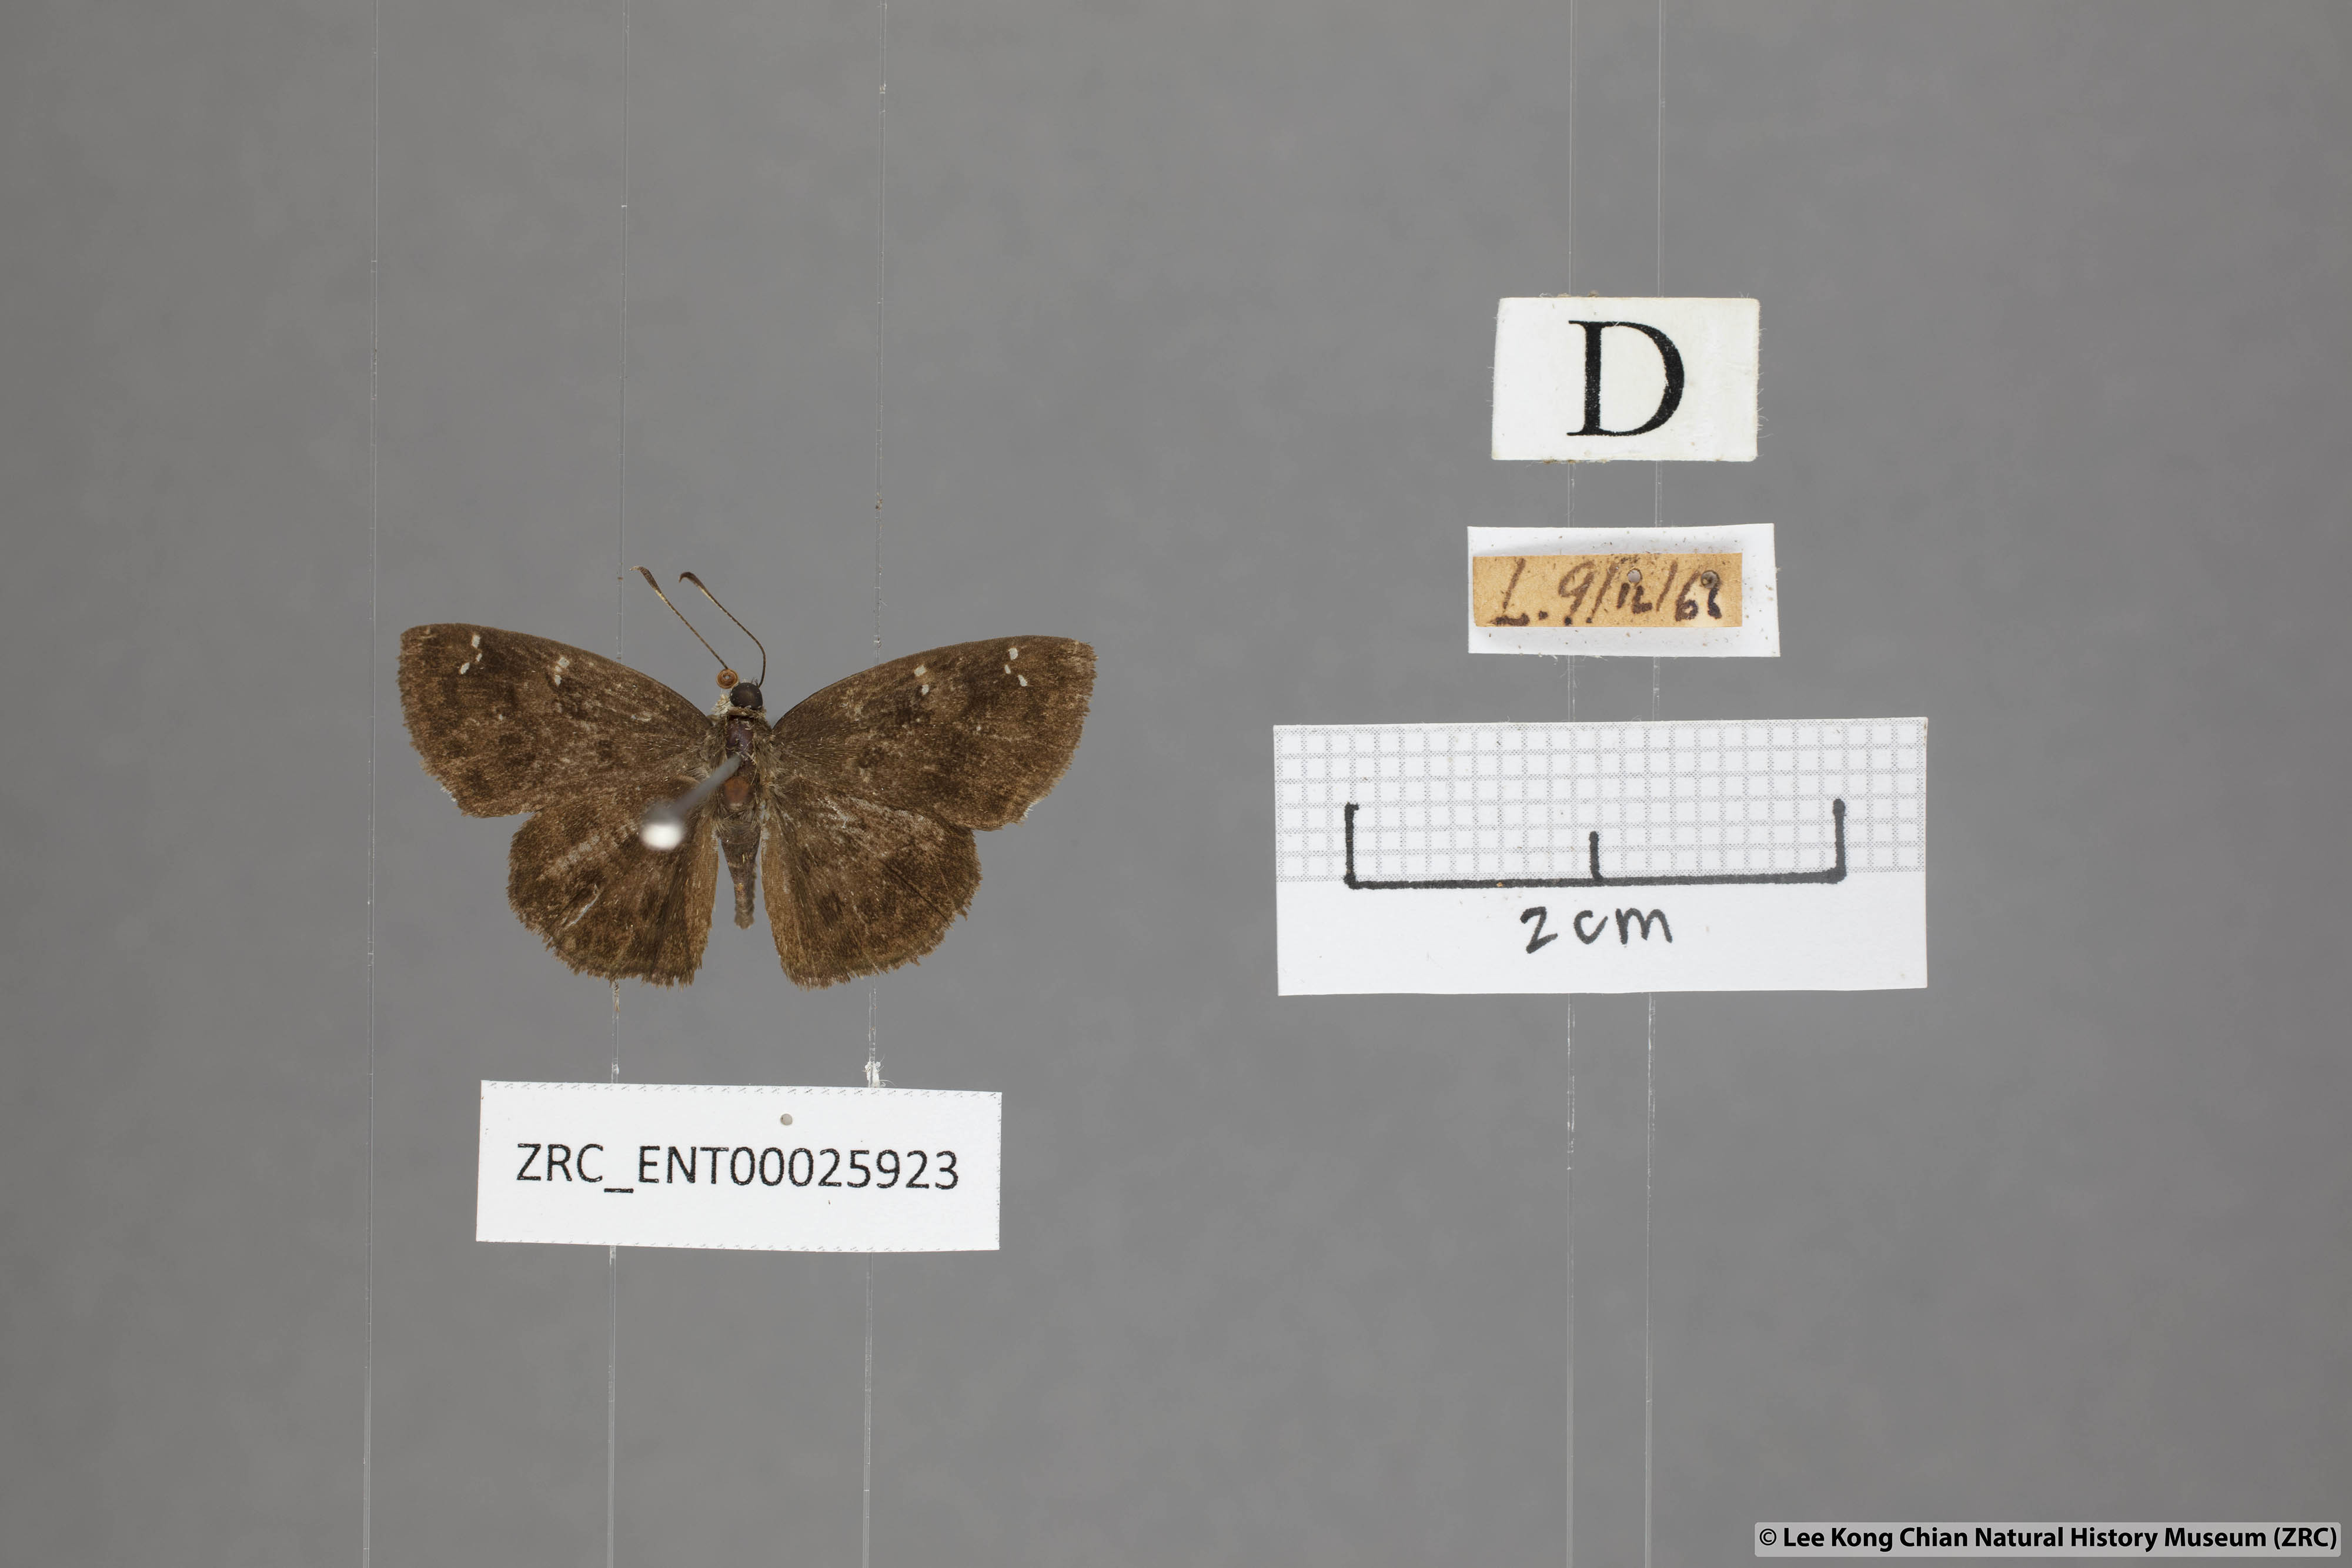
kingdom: Animalia
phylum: Arthropoda
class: Insecta
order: Lepidoptera
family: Hesperiidae
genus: Sarangesa
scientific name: Sarangesa dasahara
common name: Common small flat
